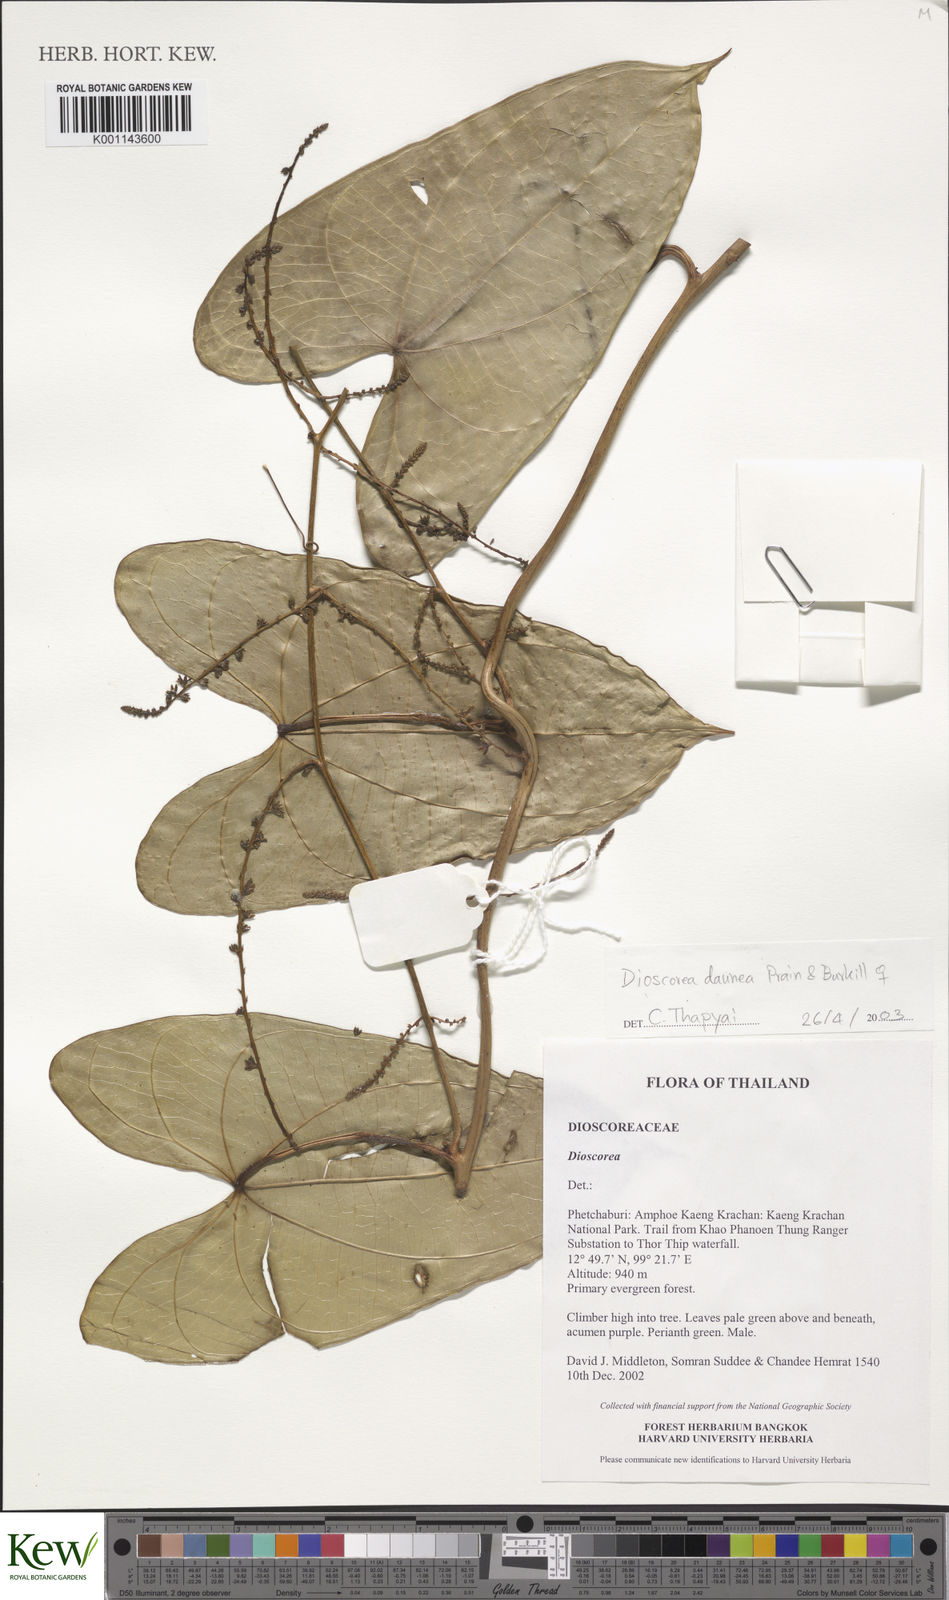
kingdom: Plantae
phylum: Tracheophyta
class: Liliopsida
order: Dioscoreales
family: Dioscoreaceae
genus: Dioscorea
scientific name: Dioscorea daunea
